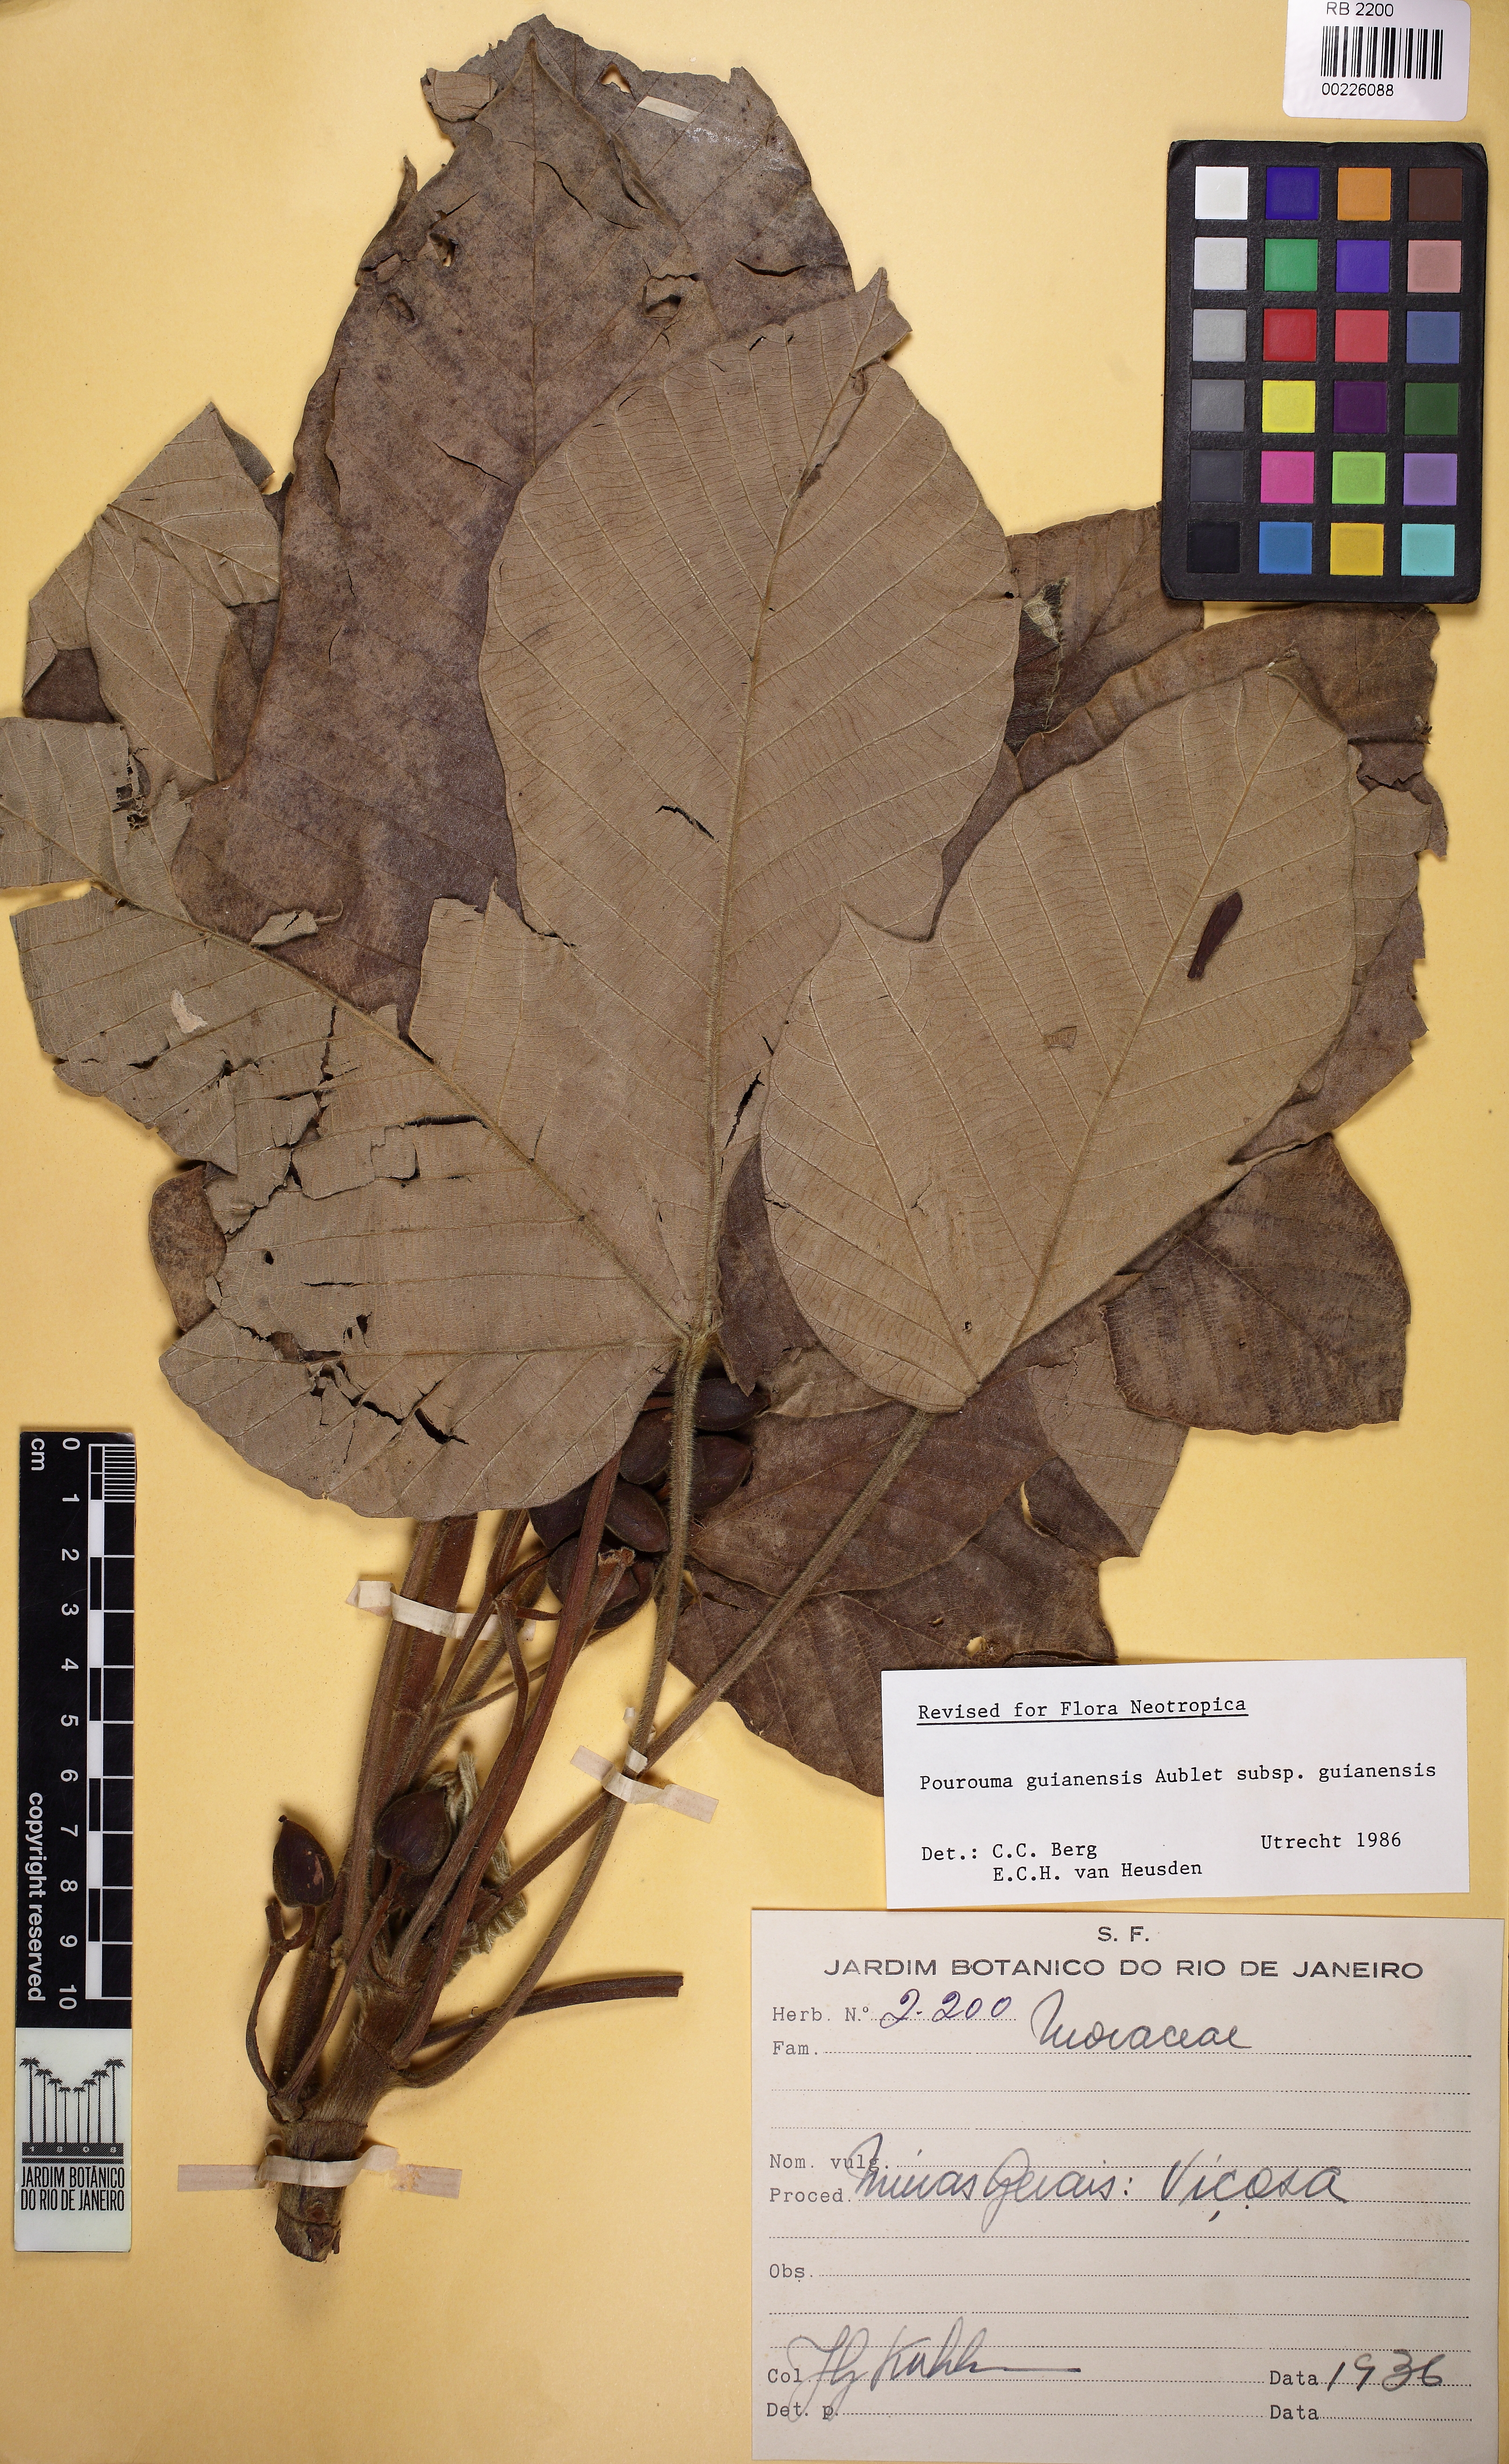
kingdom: Plantae
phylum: Tracheophyta
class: Magnoliopsida
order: Rosales
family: Urticaceae
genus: Pourouma
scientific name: Pourouma guianensis
